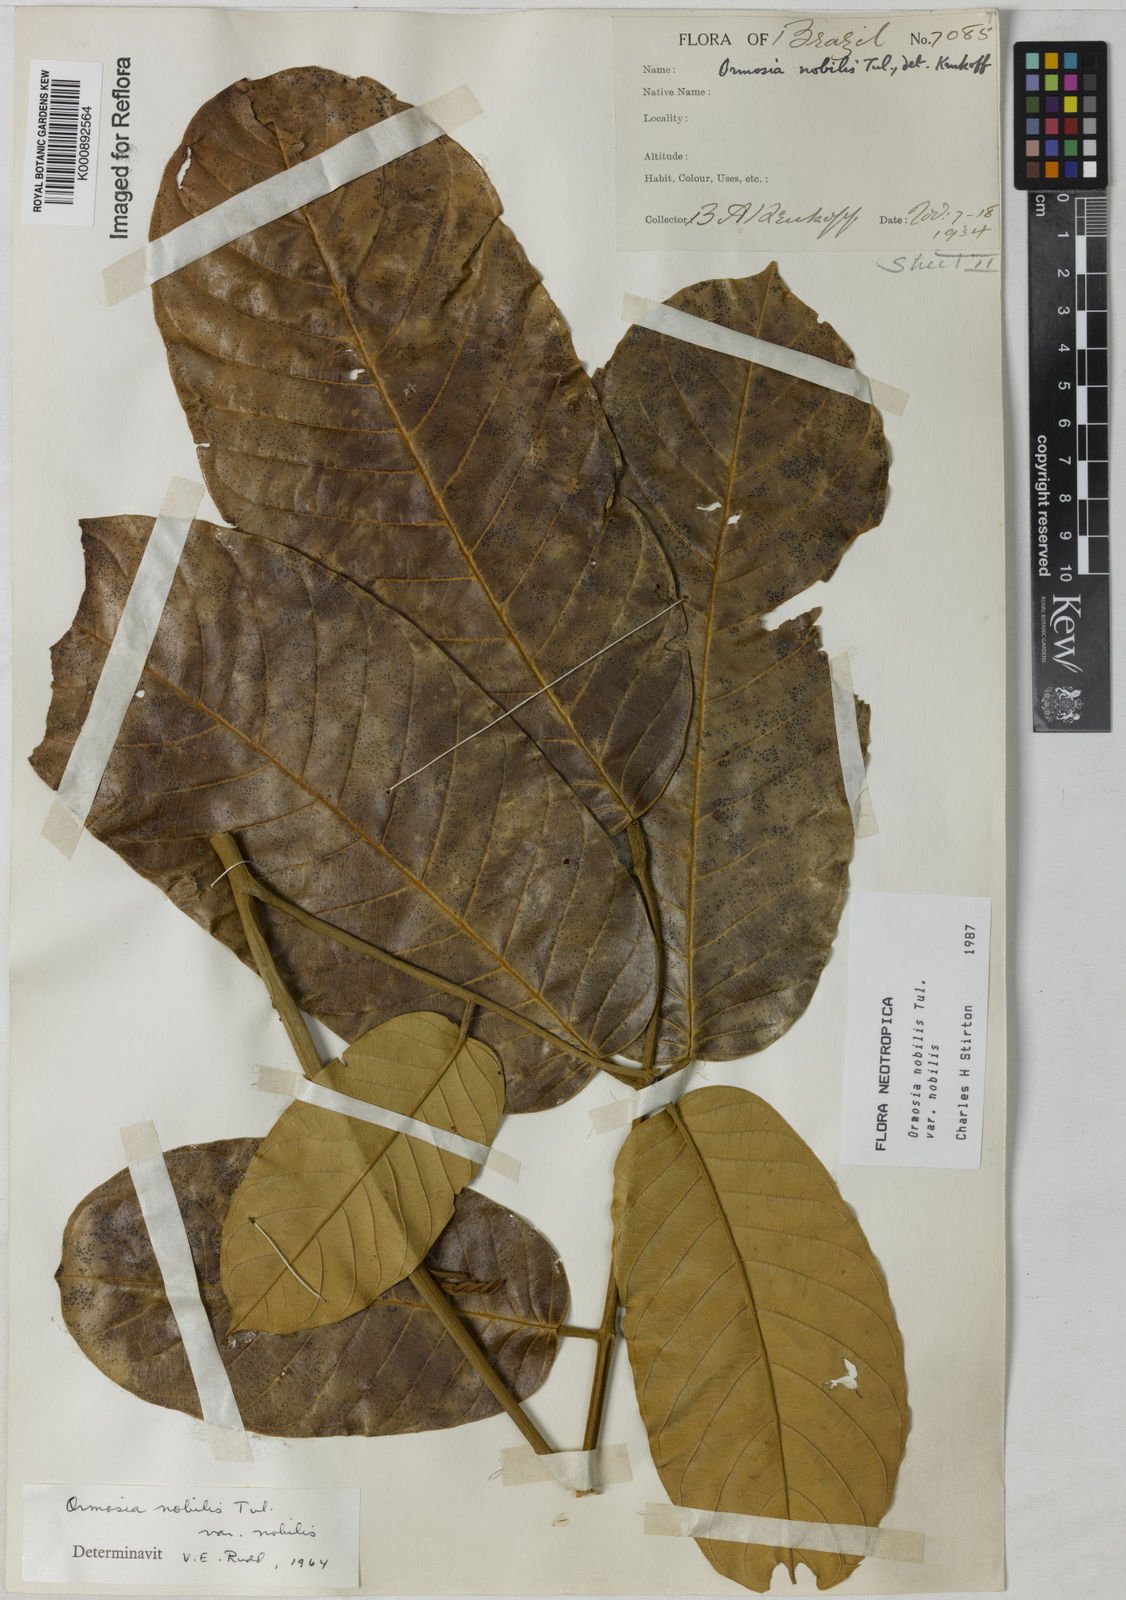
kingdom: Plantae
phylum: Tracheophyta
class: Magnoliopsida
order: Fabales
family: Fabaceae
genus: Ormosia
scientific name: Ormosia nobilis
